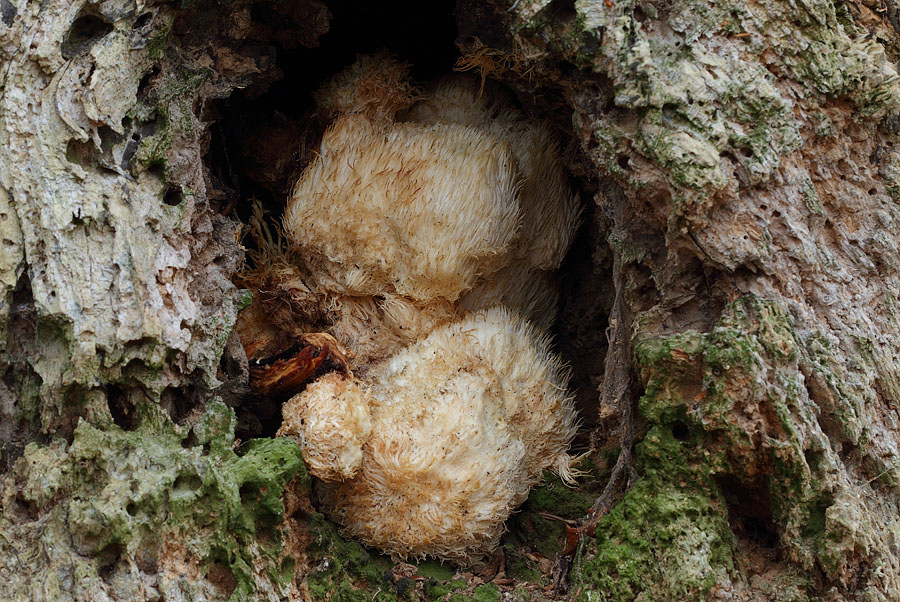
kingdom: Fungi
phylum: Basidiomycota
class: Agaricomycetes
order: Russulales
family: Hericiaceae
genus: Hericium
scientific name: Hericium erinaceus
